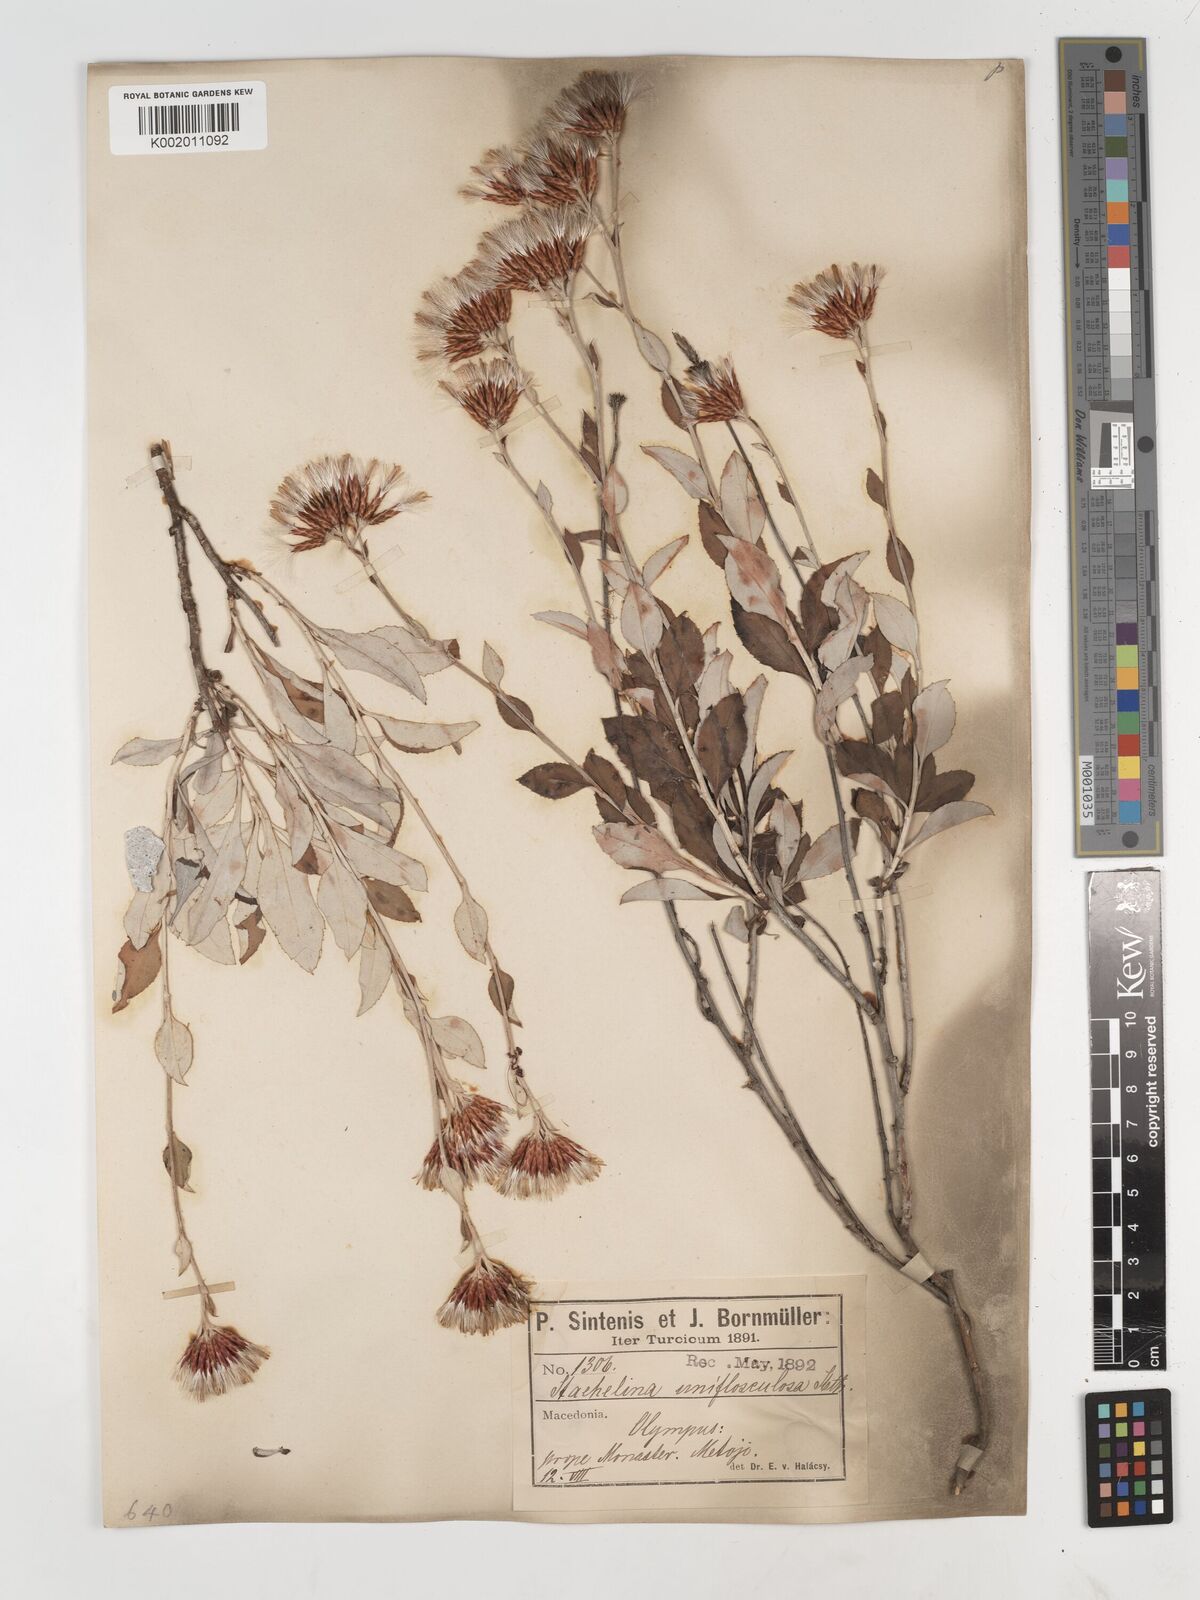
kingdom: Plantae
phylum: Tracheophyta
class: Magnoliopsida
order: Asterales
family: Asteraceae
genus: Staehelina
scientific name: Staehelina uniflosculosa
